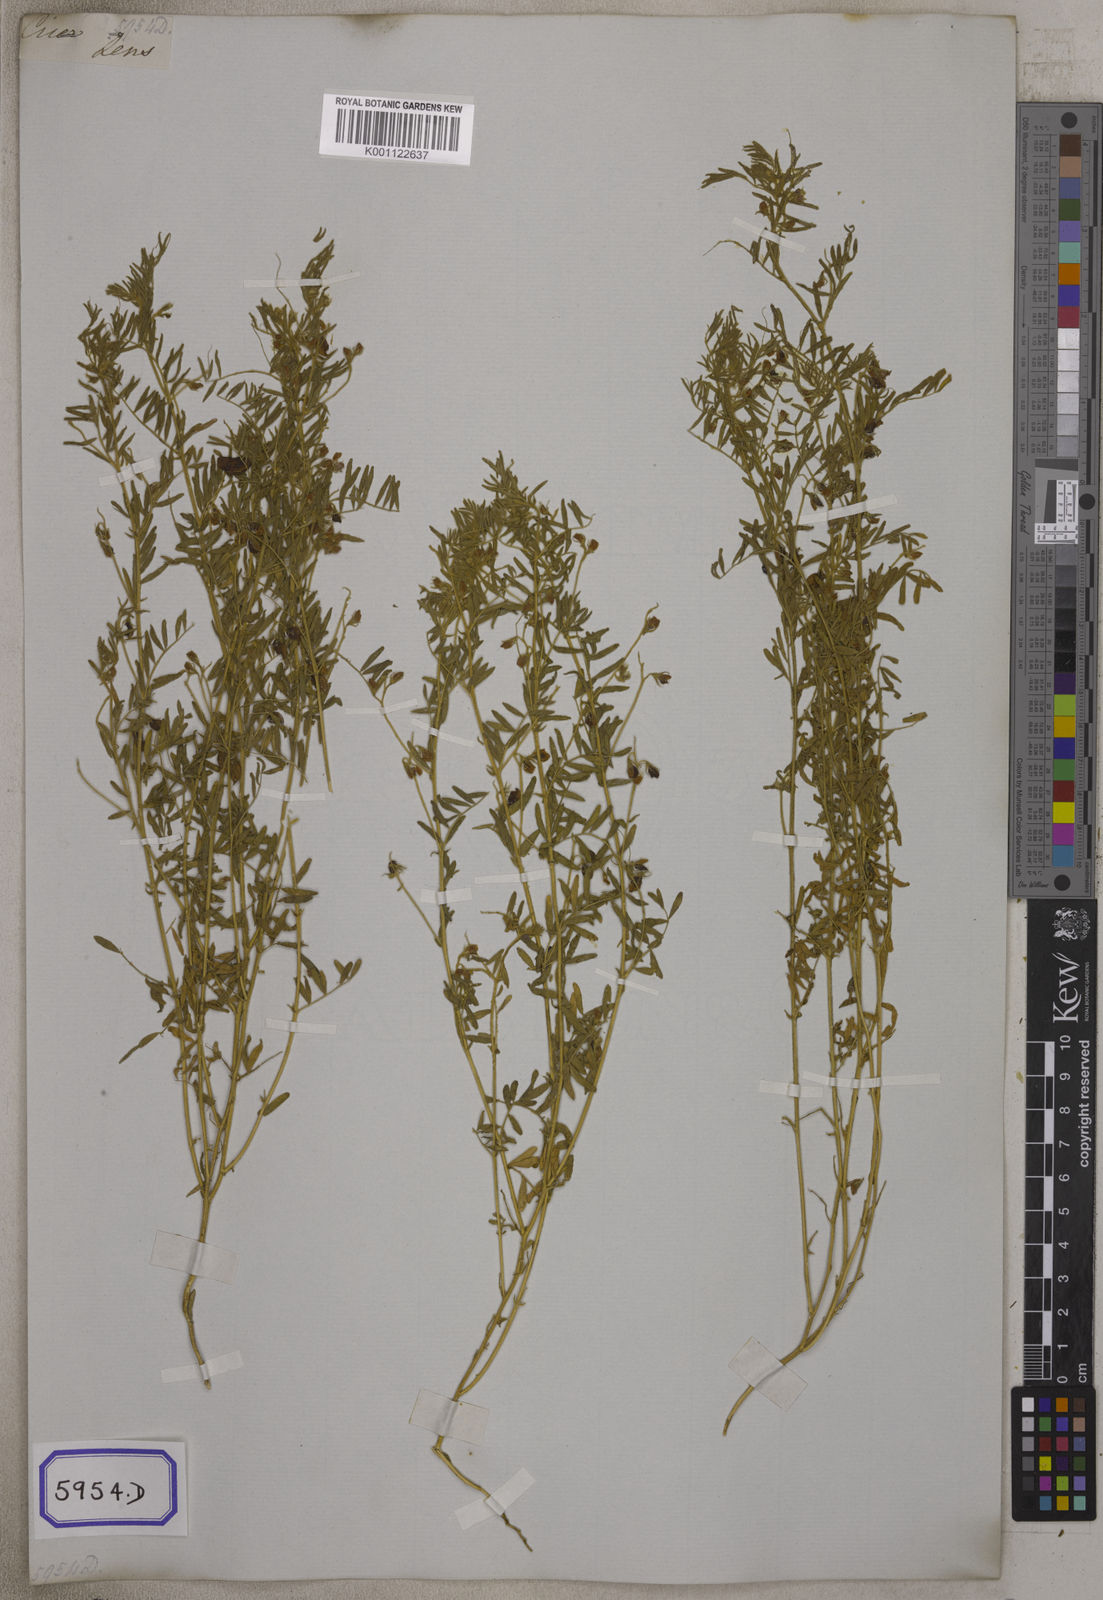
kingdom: Plantae
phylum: Tracheophyta
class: Magnoliopsida
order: Fabales
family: Fabaceae
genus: Vicia
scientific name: Vicia
